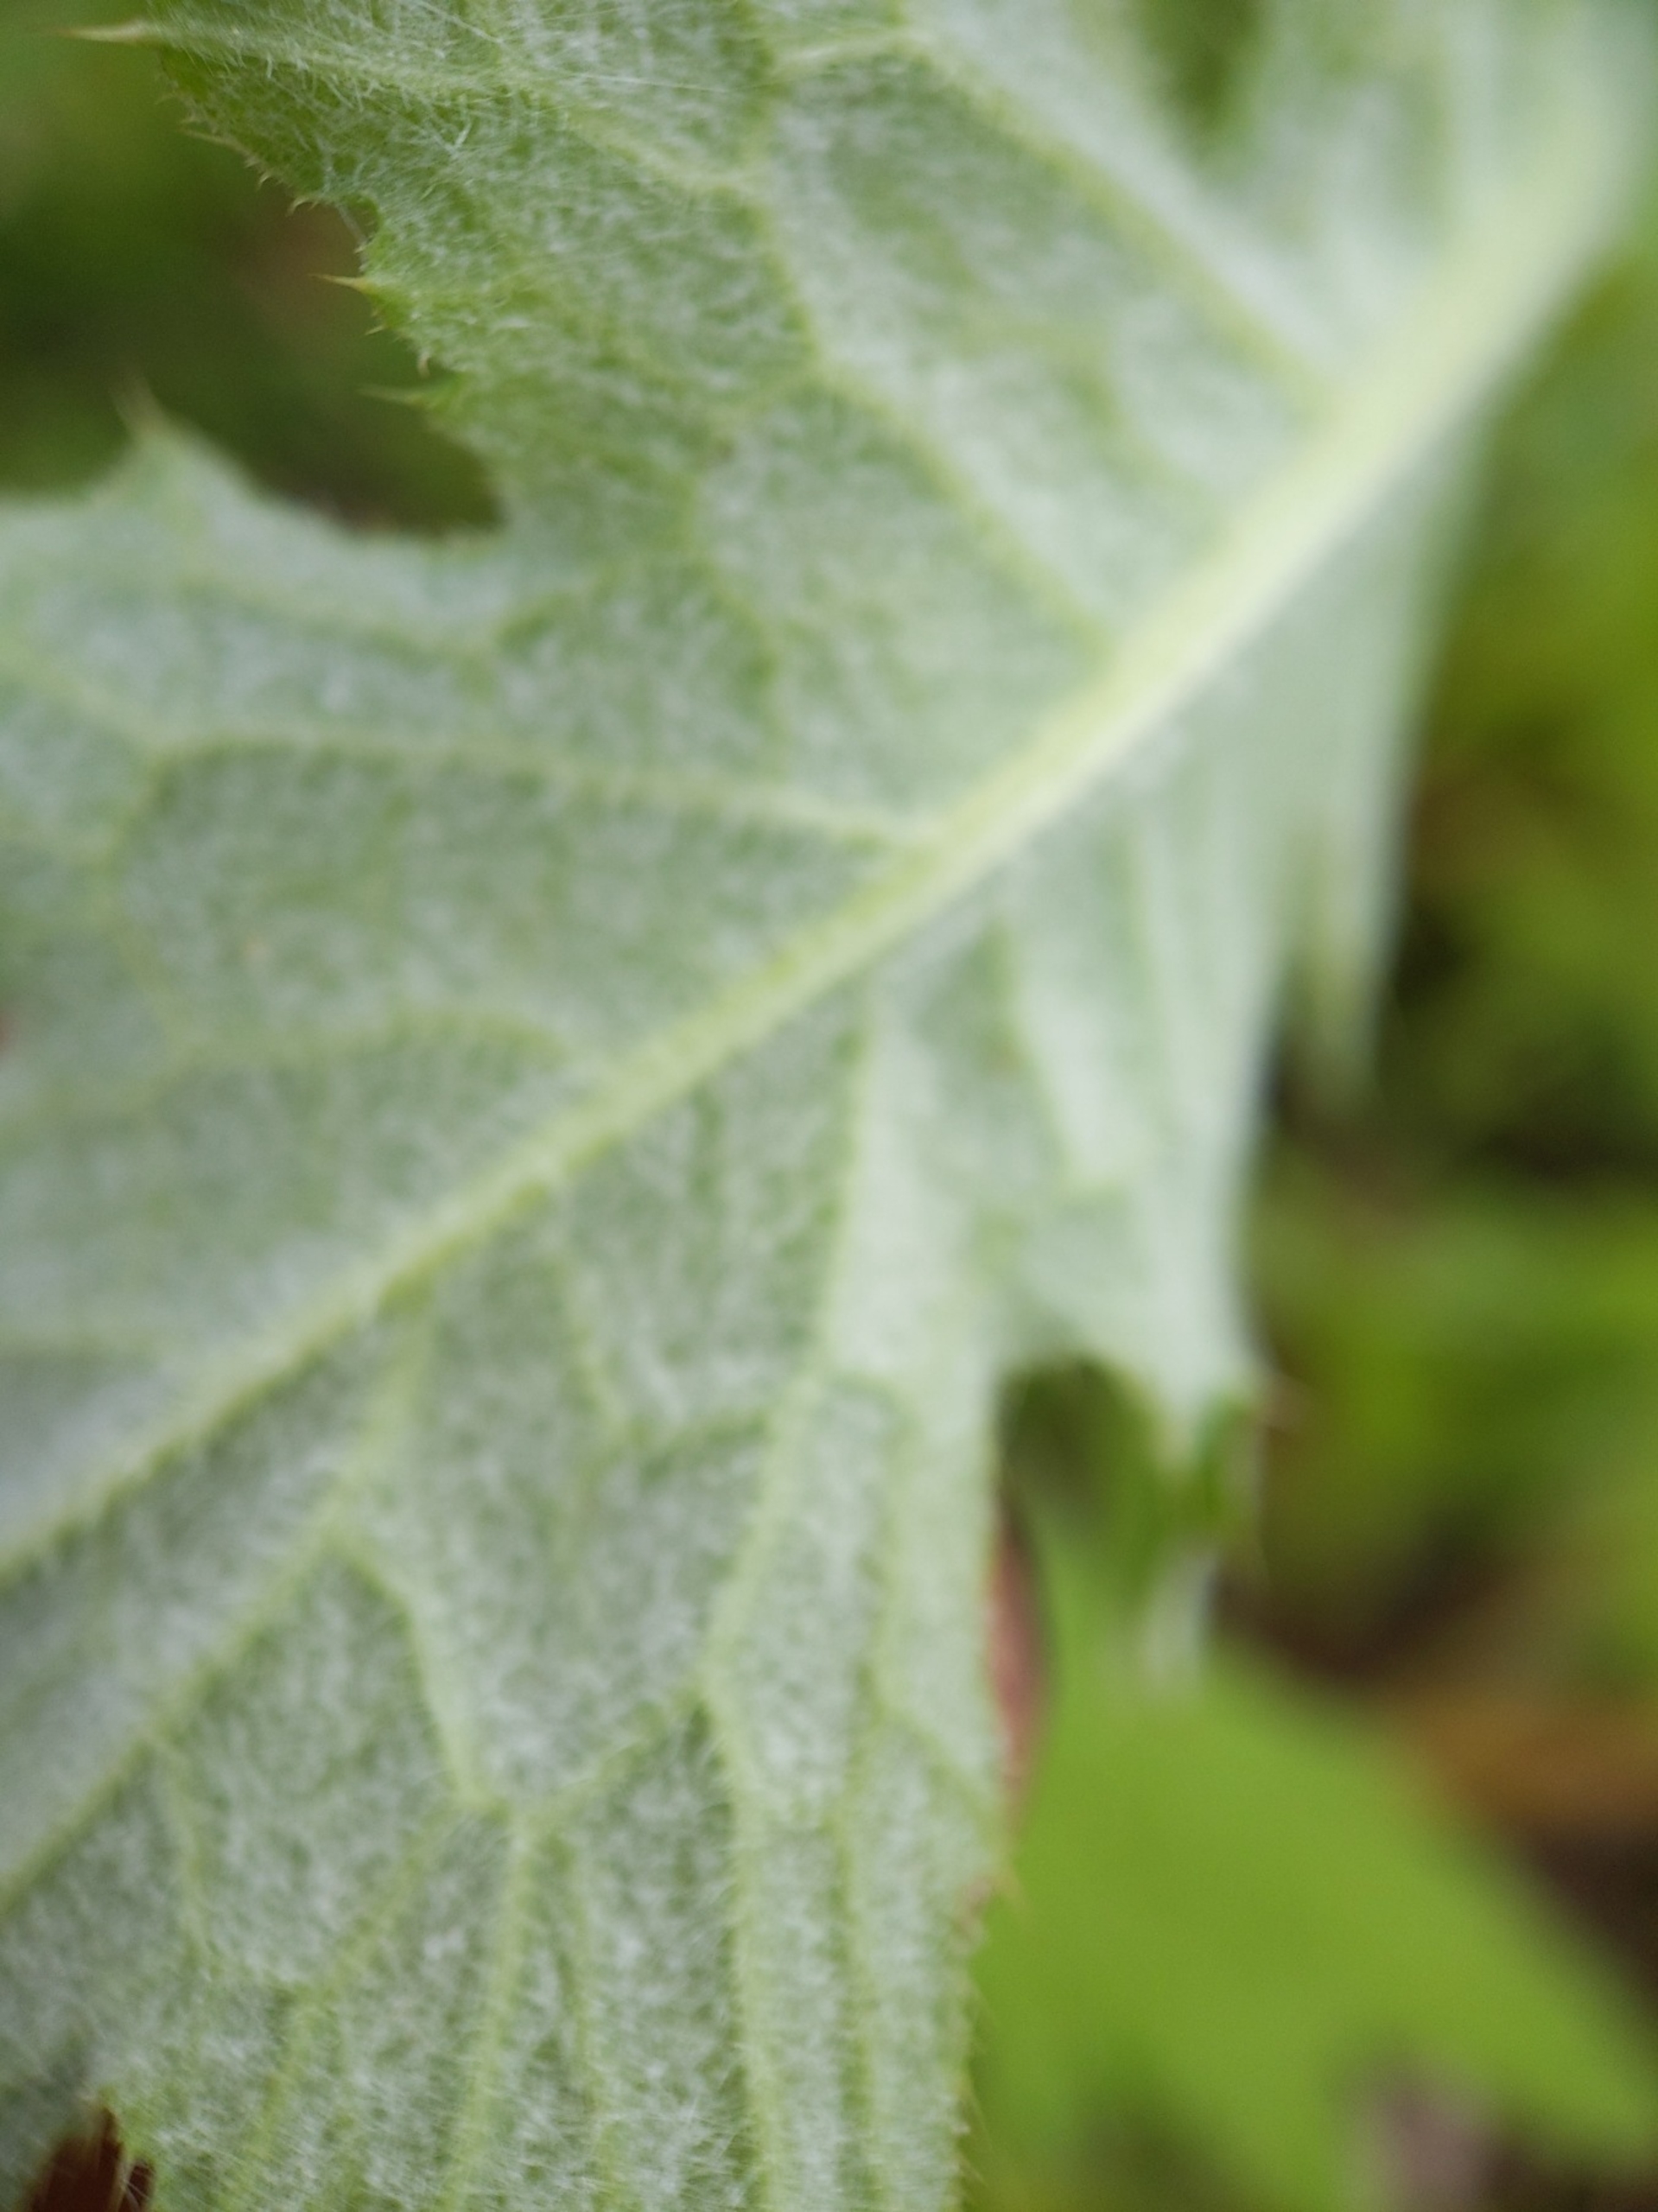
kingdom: Plantae
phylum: Tracheophyta
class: Magnoliopsida
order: Asterales
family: Asteraceae
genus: Carduus
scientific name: Carduus crispus
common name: Kruset tidsel
